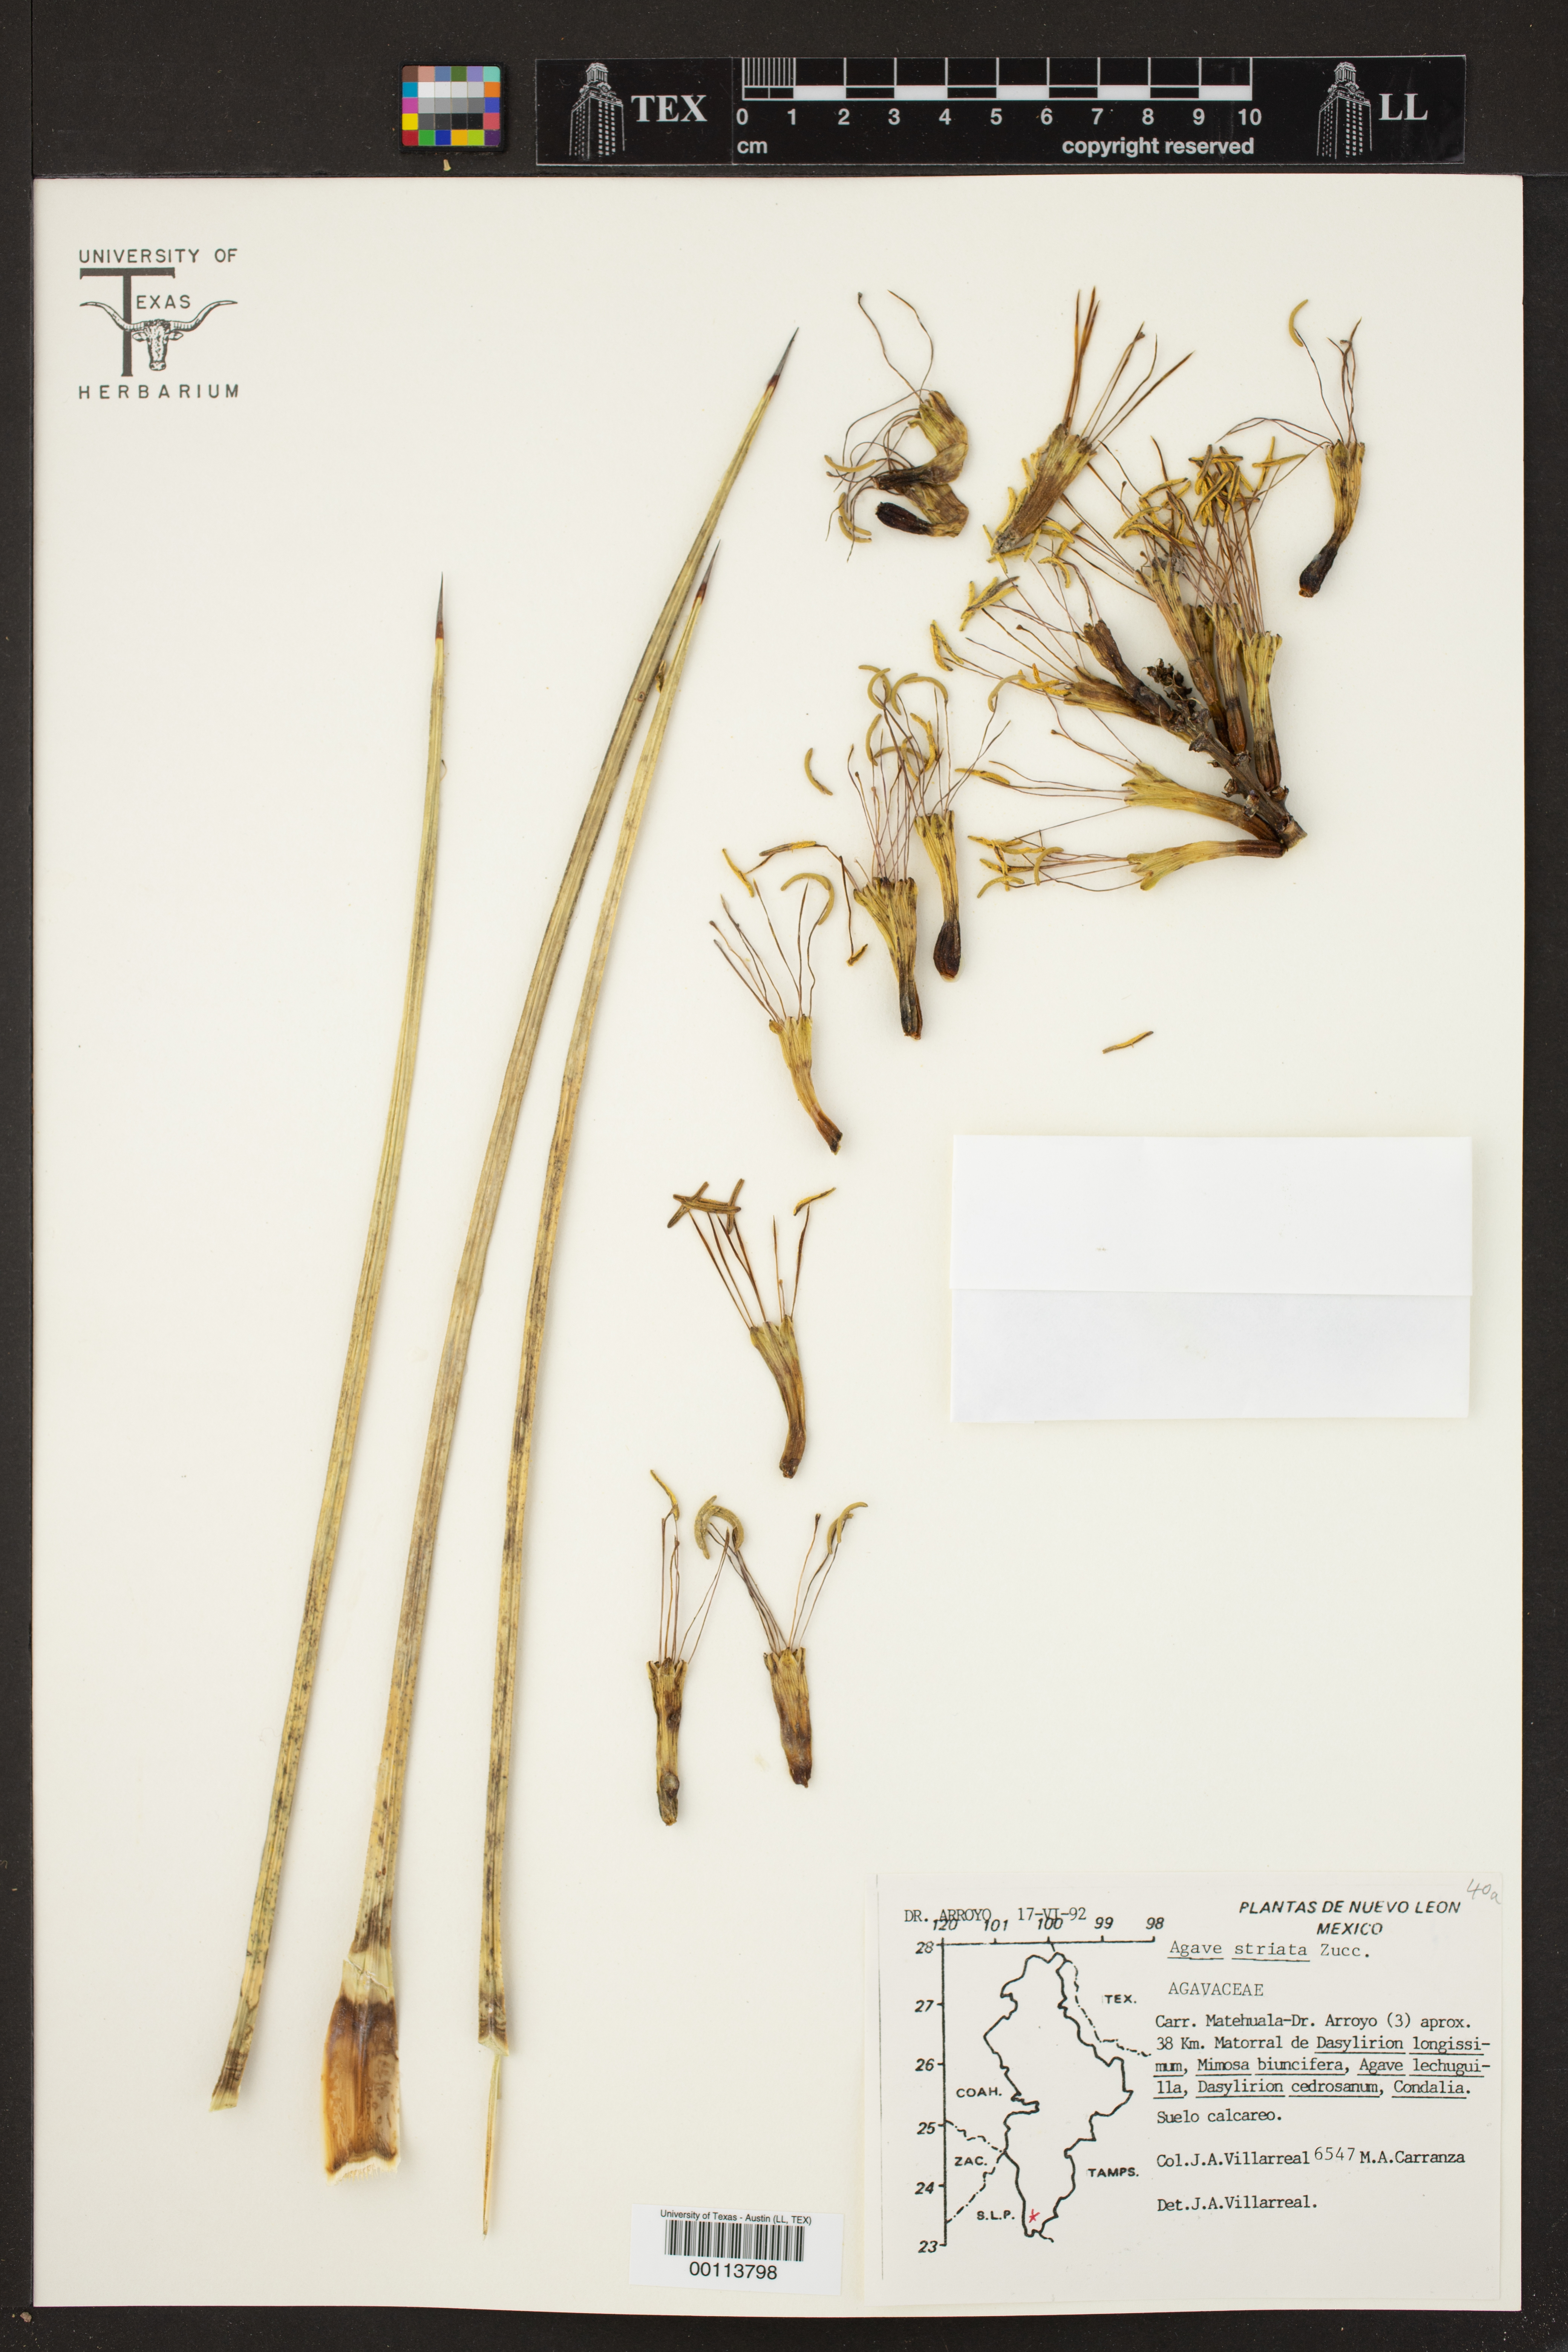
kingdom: Plantae
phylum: Tracheophyta
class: Liliopsida
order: Asparagales
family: Asparagaceae
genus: Agave
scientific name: Agave striata
